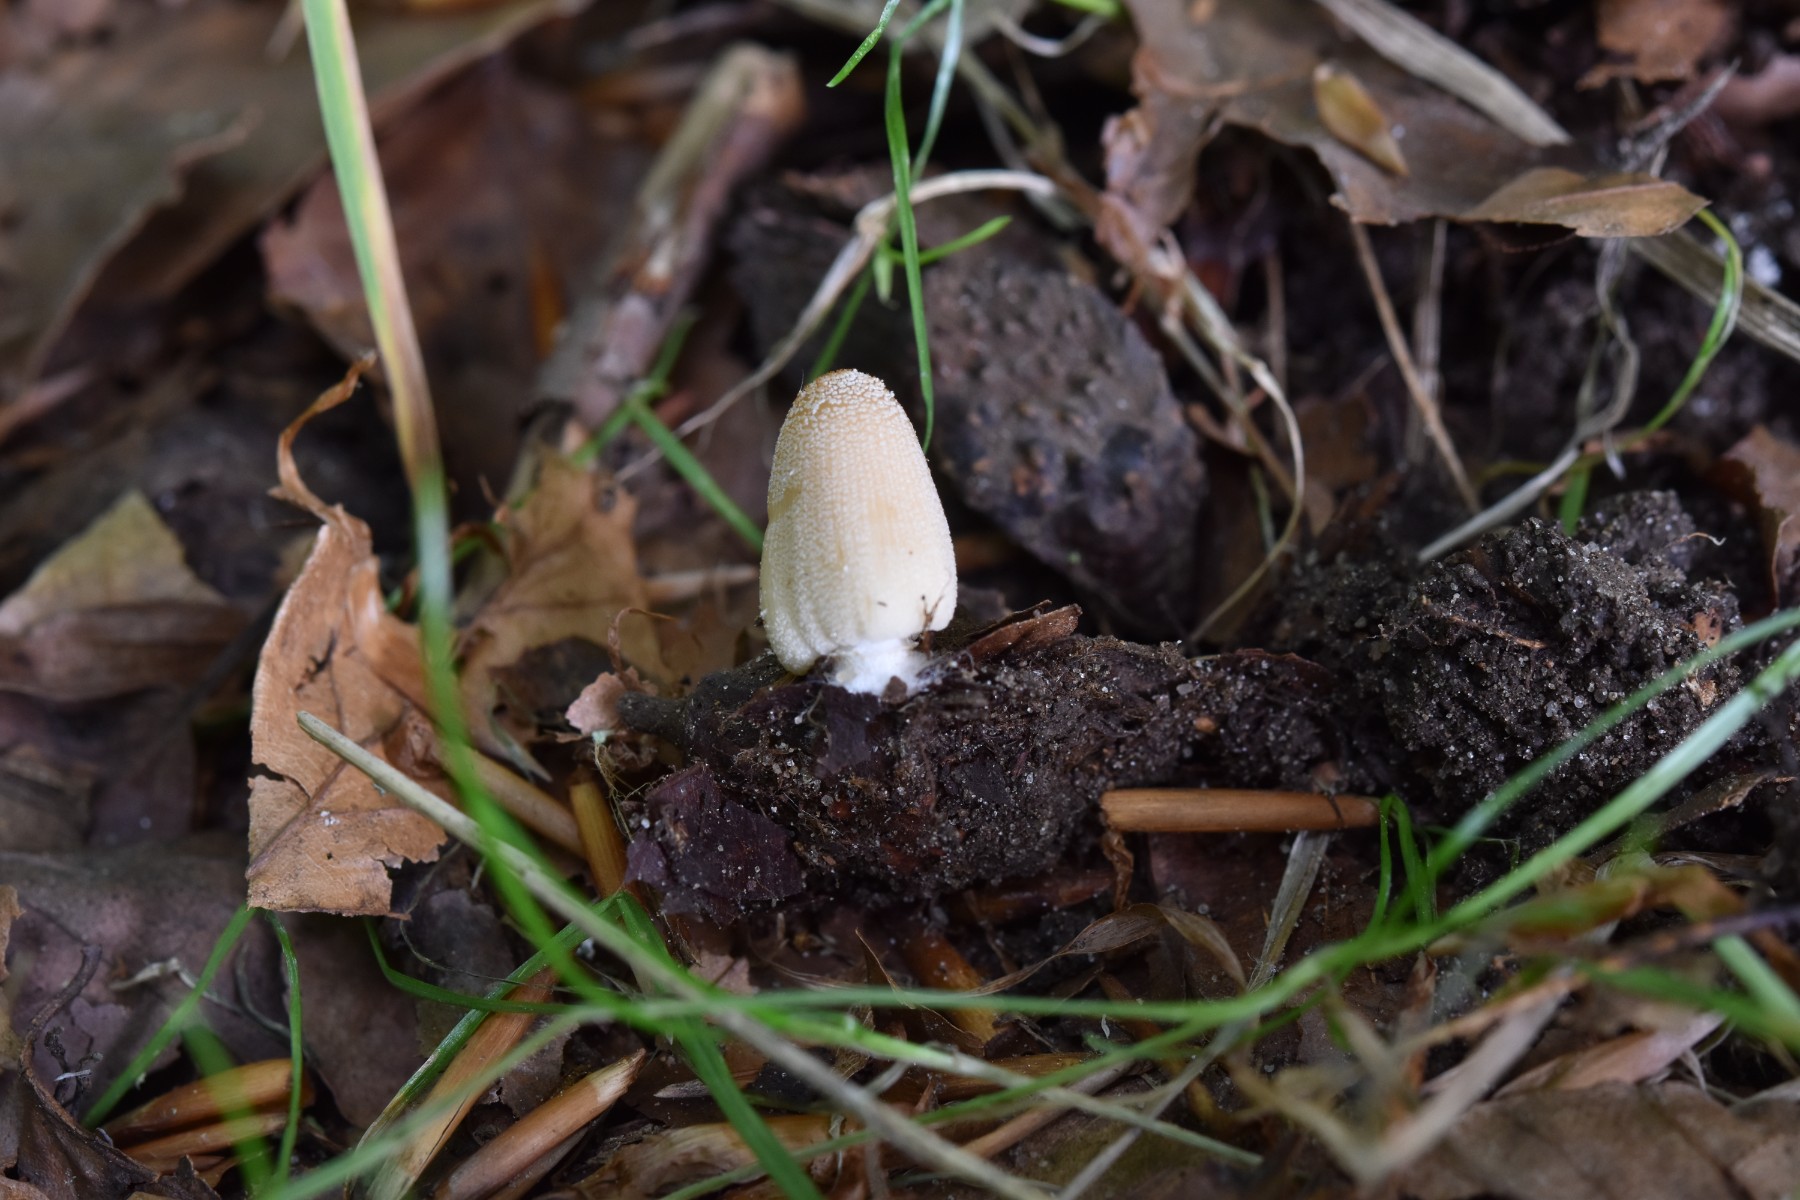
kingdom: Fungi
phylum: Basidiomycota
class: Agaricomycetes
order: Agaricales
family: Psathyrellaceae
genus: Coprinellus
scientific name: Coprinellus domesticus
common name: hus-blækhat
